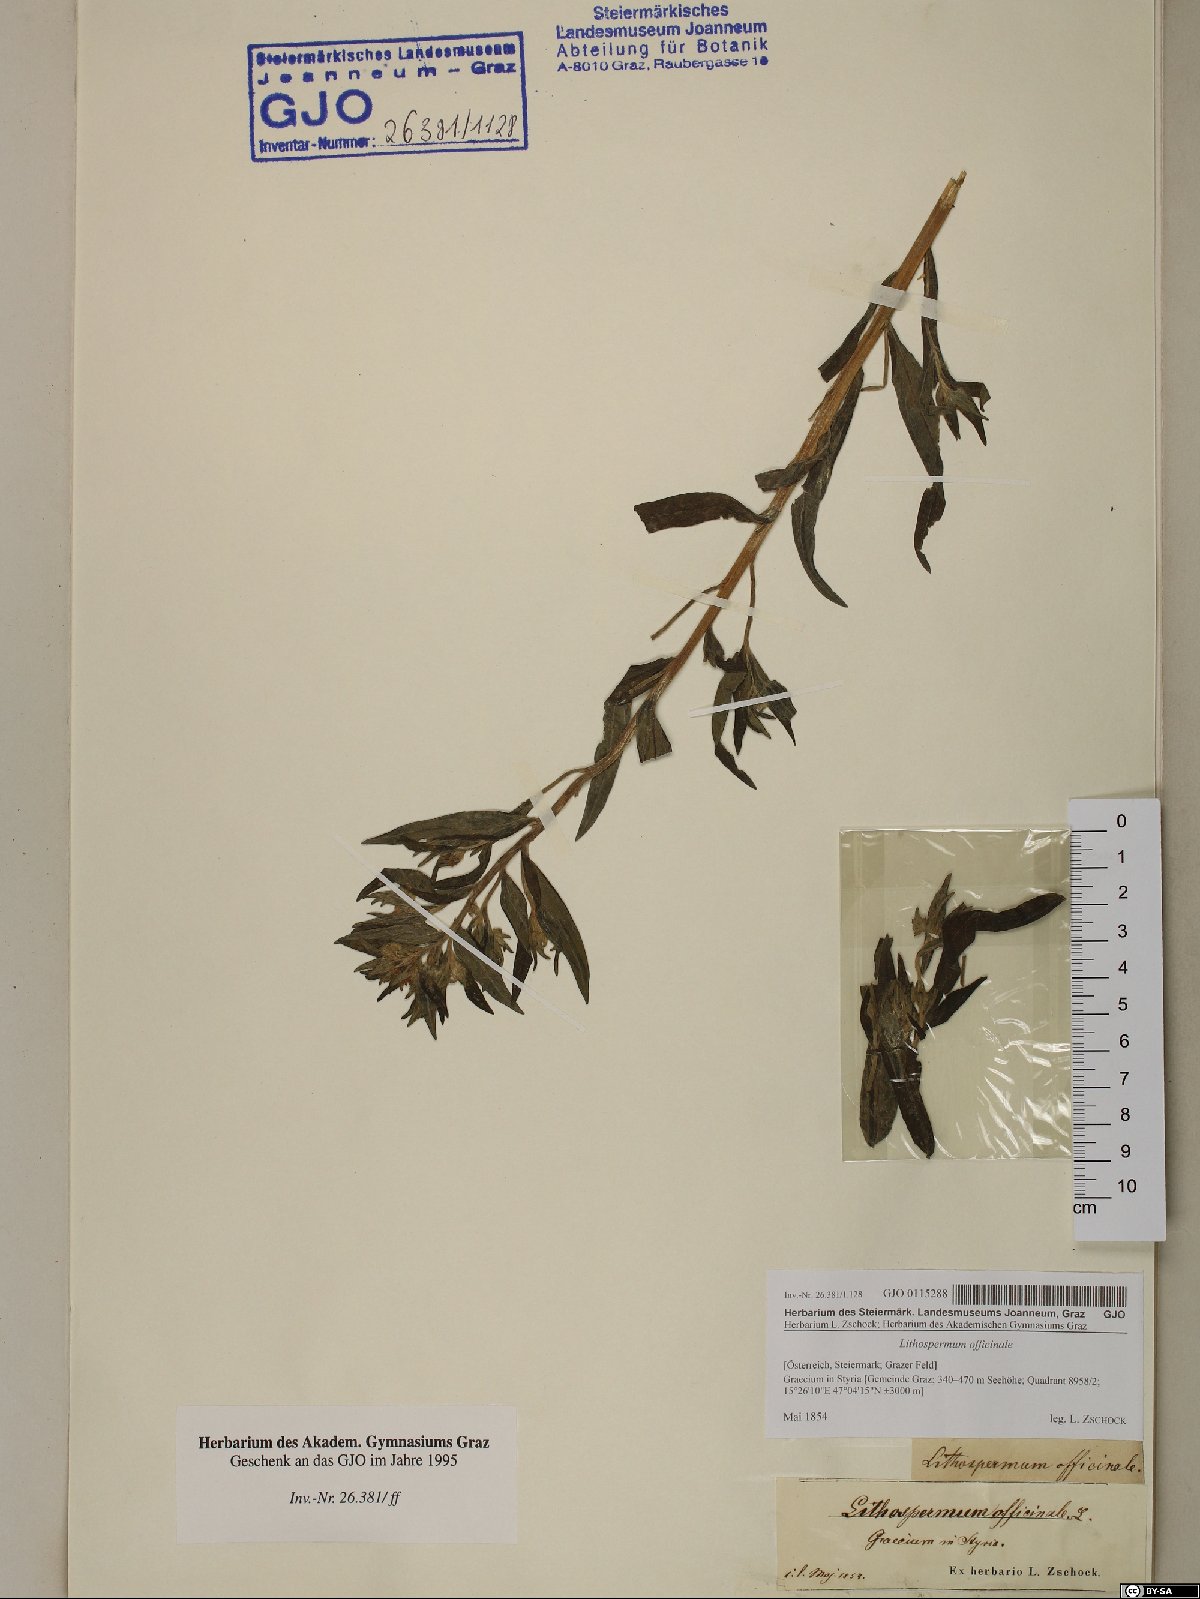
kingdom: Plantae
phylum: Tracheophyta
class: Magnoliopsida
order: Boraginales
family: Boraginaceae
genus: Lithospermum
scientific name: Lithospermum officinale
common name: Common gromwell
